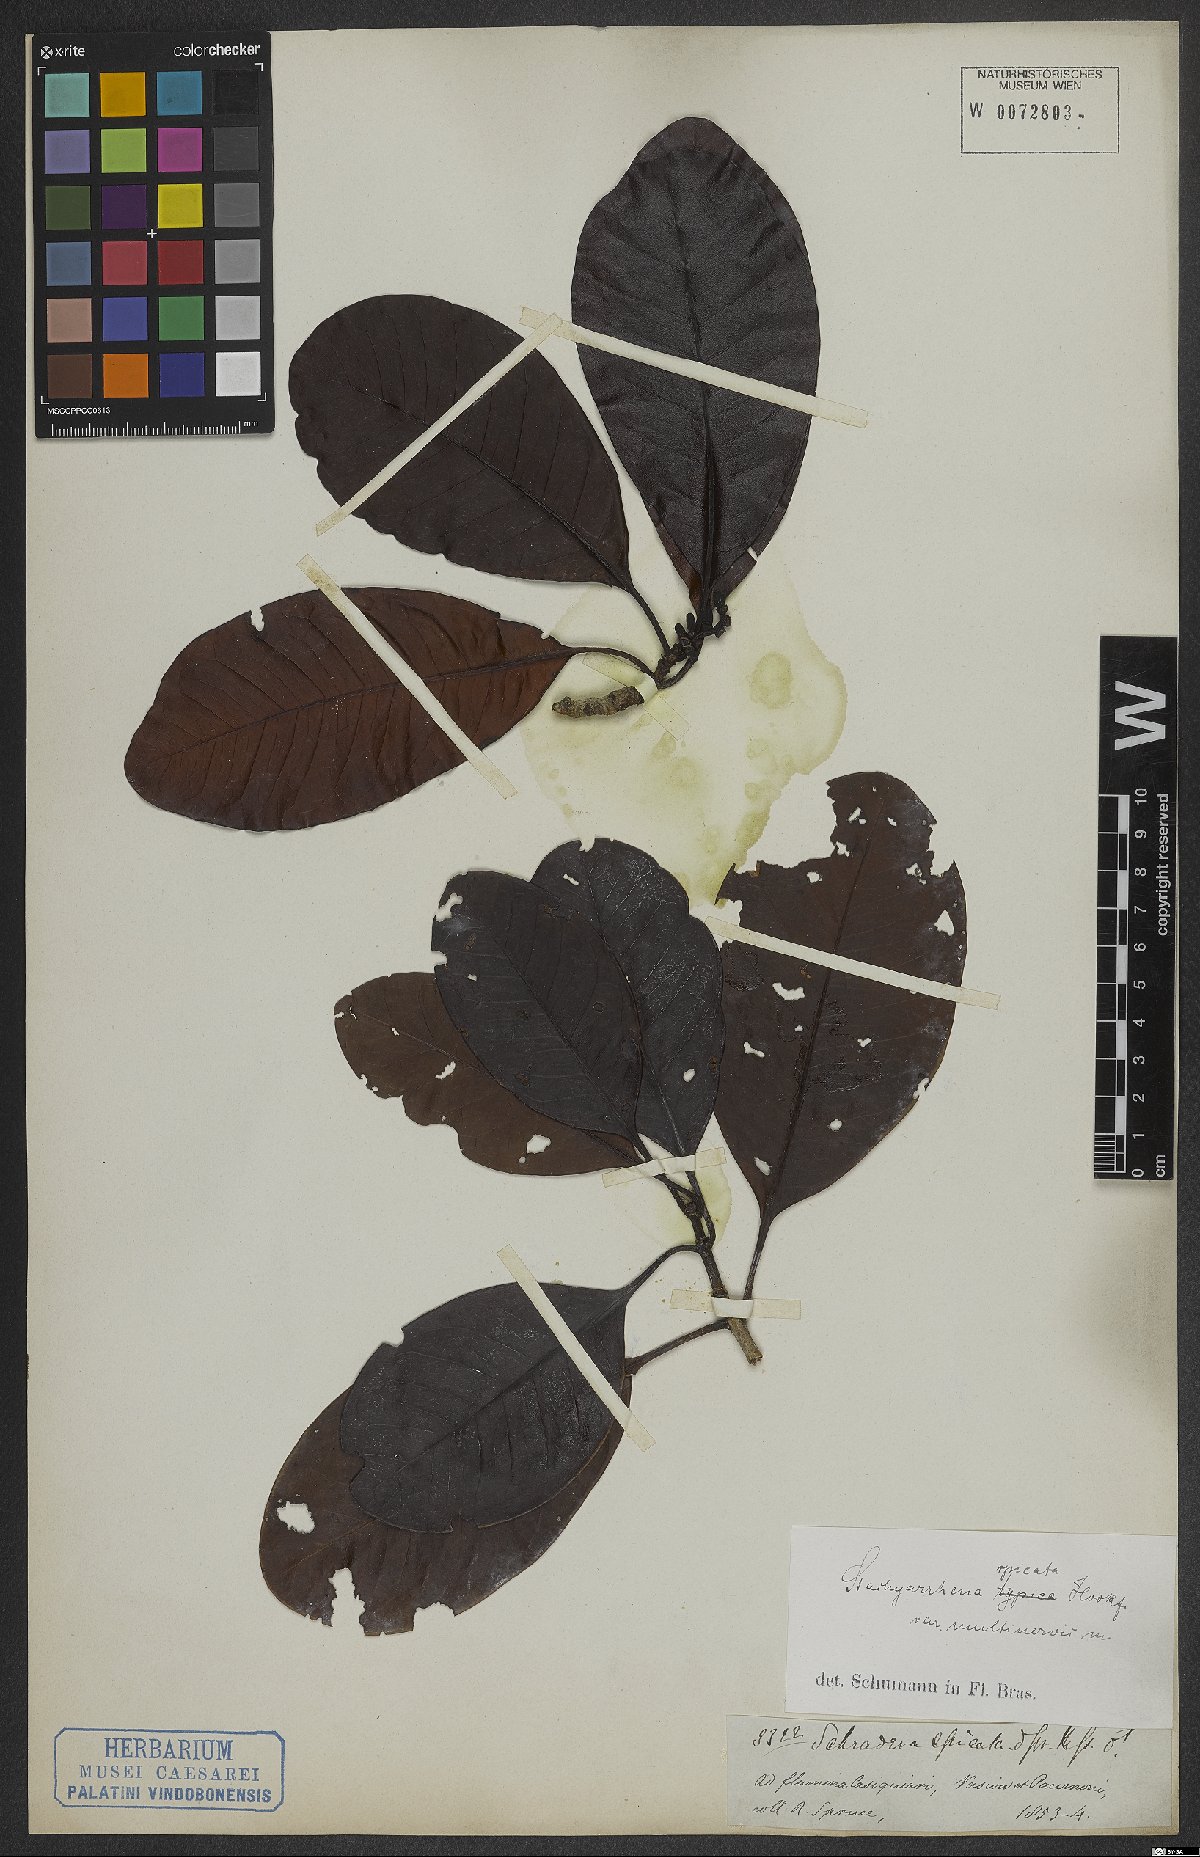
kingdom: Plantae
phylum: Tracheophyta
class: Magnoliopsida
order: Gentianales
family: Rubiaceae
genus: Stachyarrhena
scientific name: Stachyarrhena spicata
